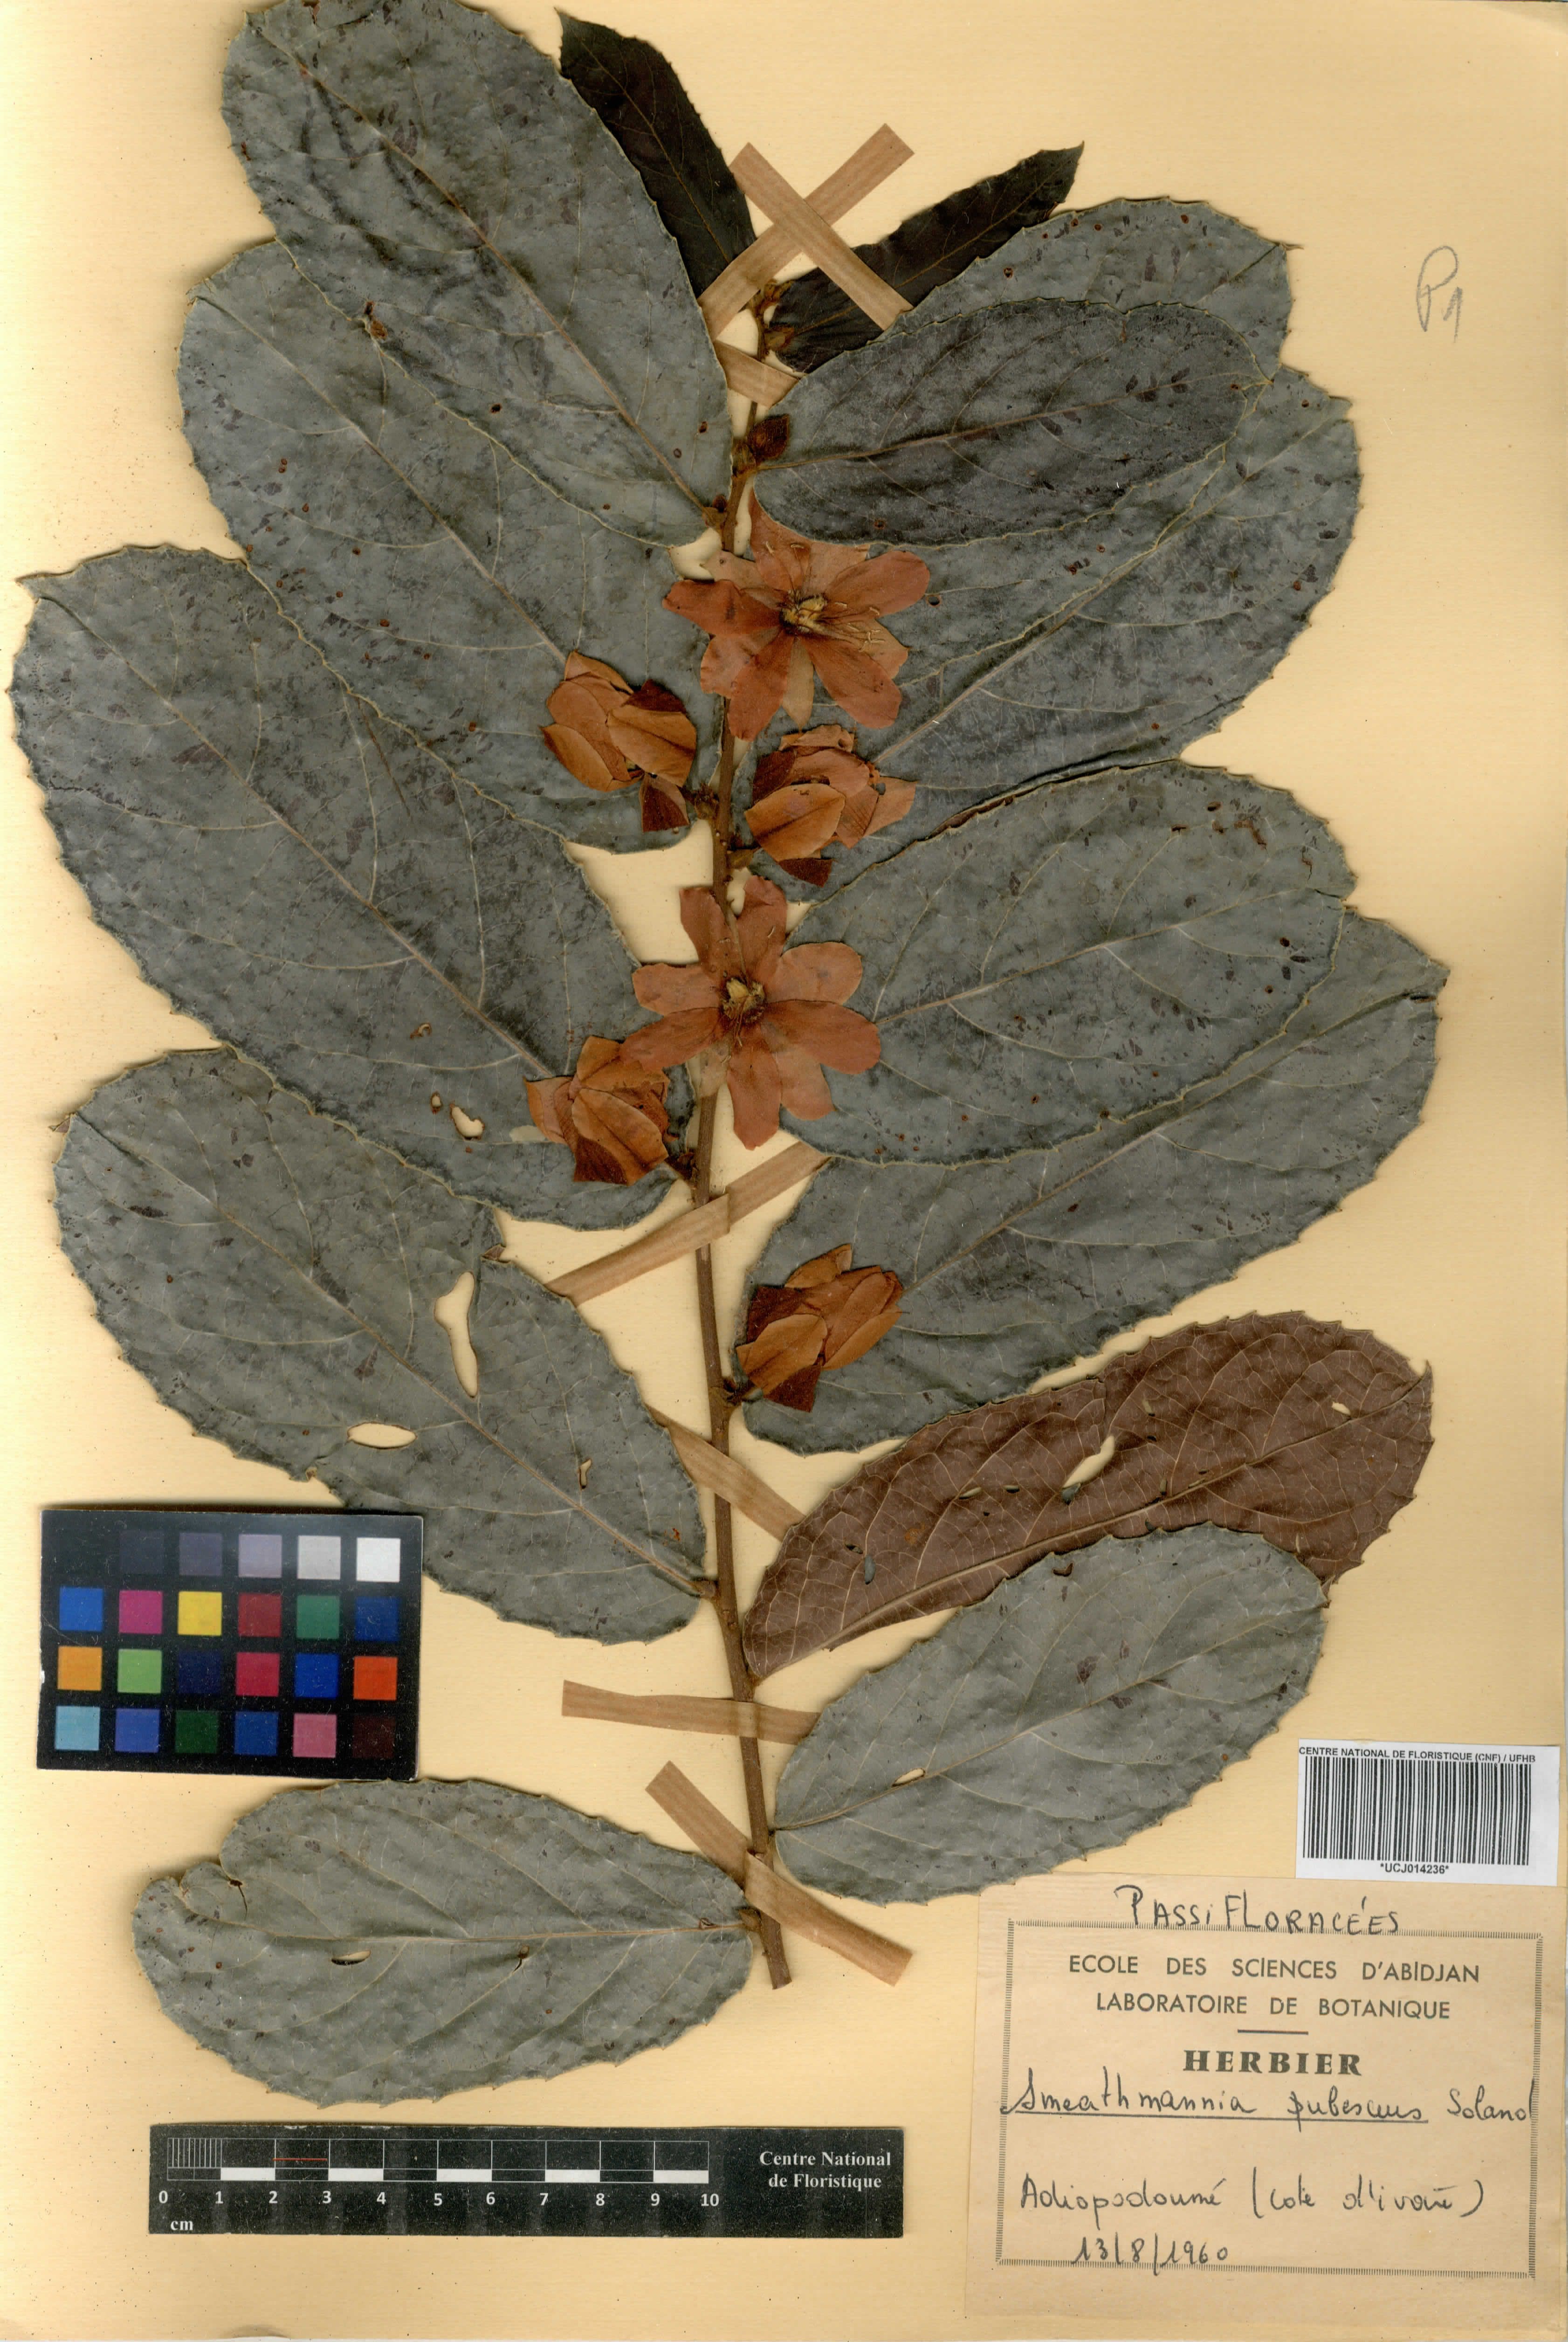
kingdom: Plantae
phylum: Tracheophyta
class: Magnoliopsida
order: Malpighiales
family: Passifloraceae
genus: Smeathmannia
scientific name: Smeathmannia pubescens
